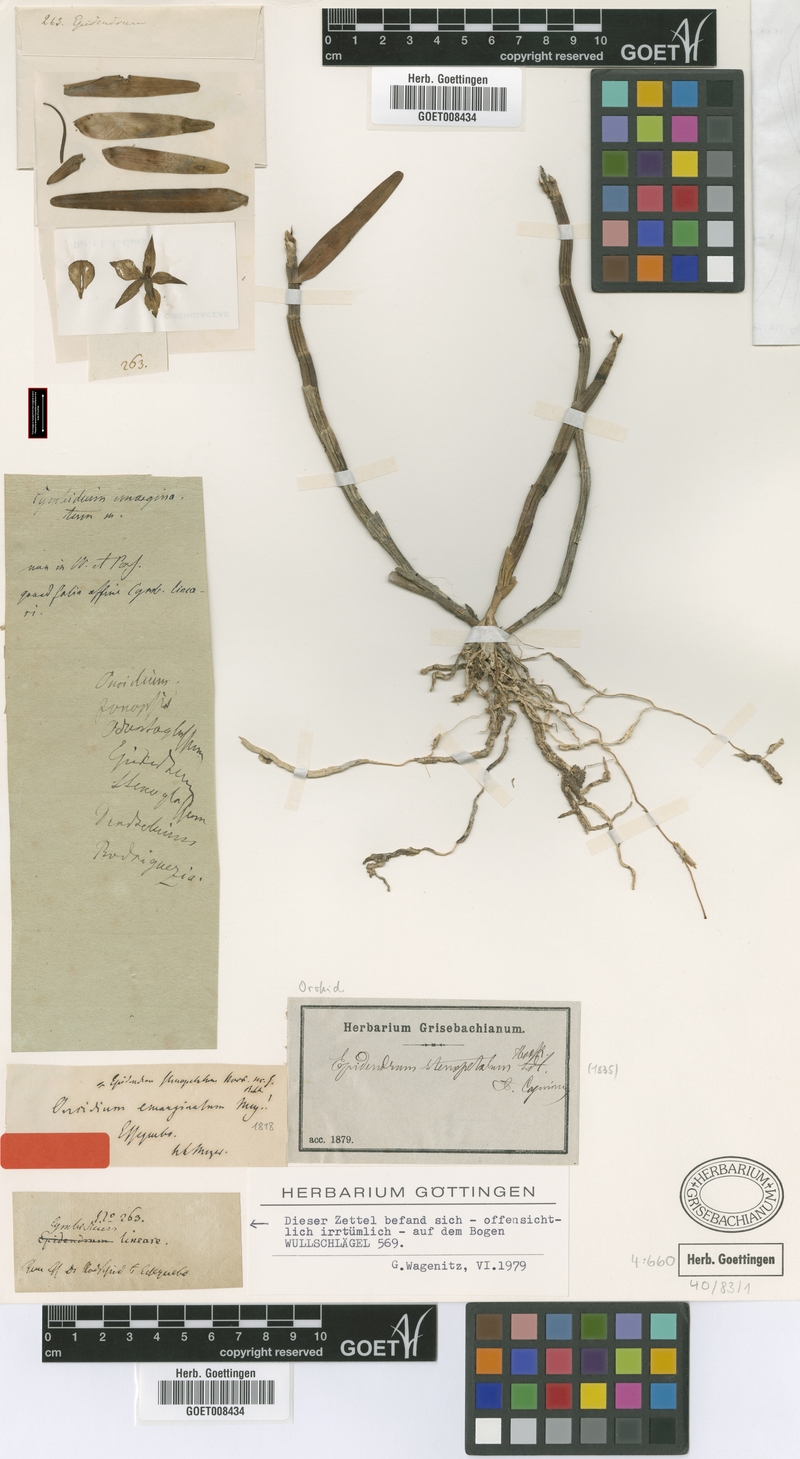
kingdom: Plantae
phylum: Tracheophyta
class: Liliopsida
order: Asparagales
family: Orchidaceae
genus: Dimerandra
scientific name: Dimerandra emarginata
